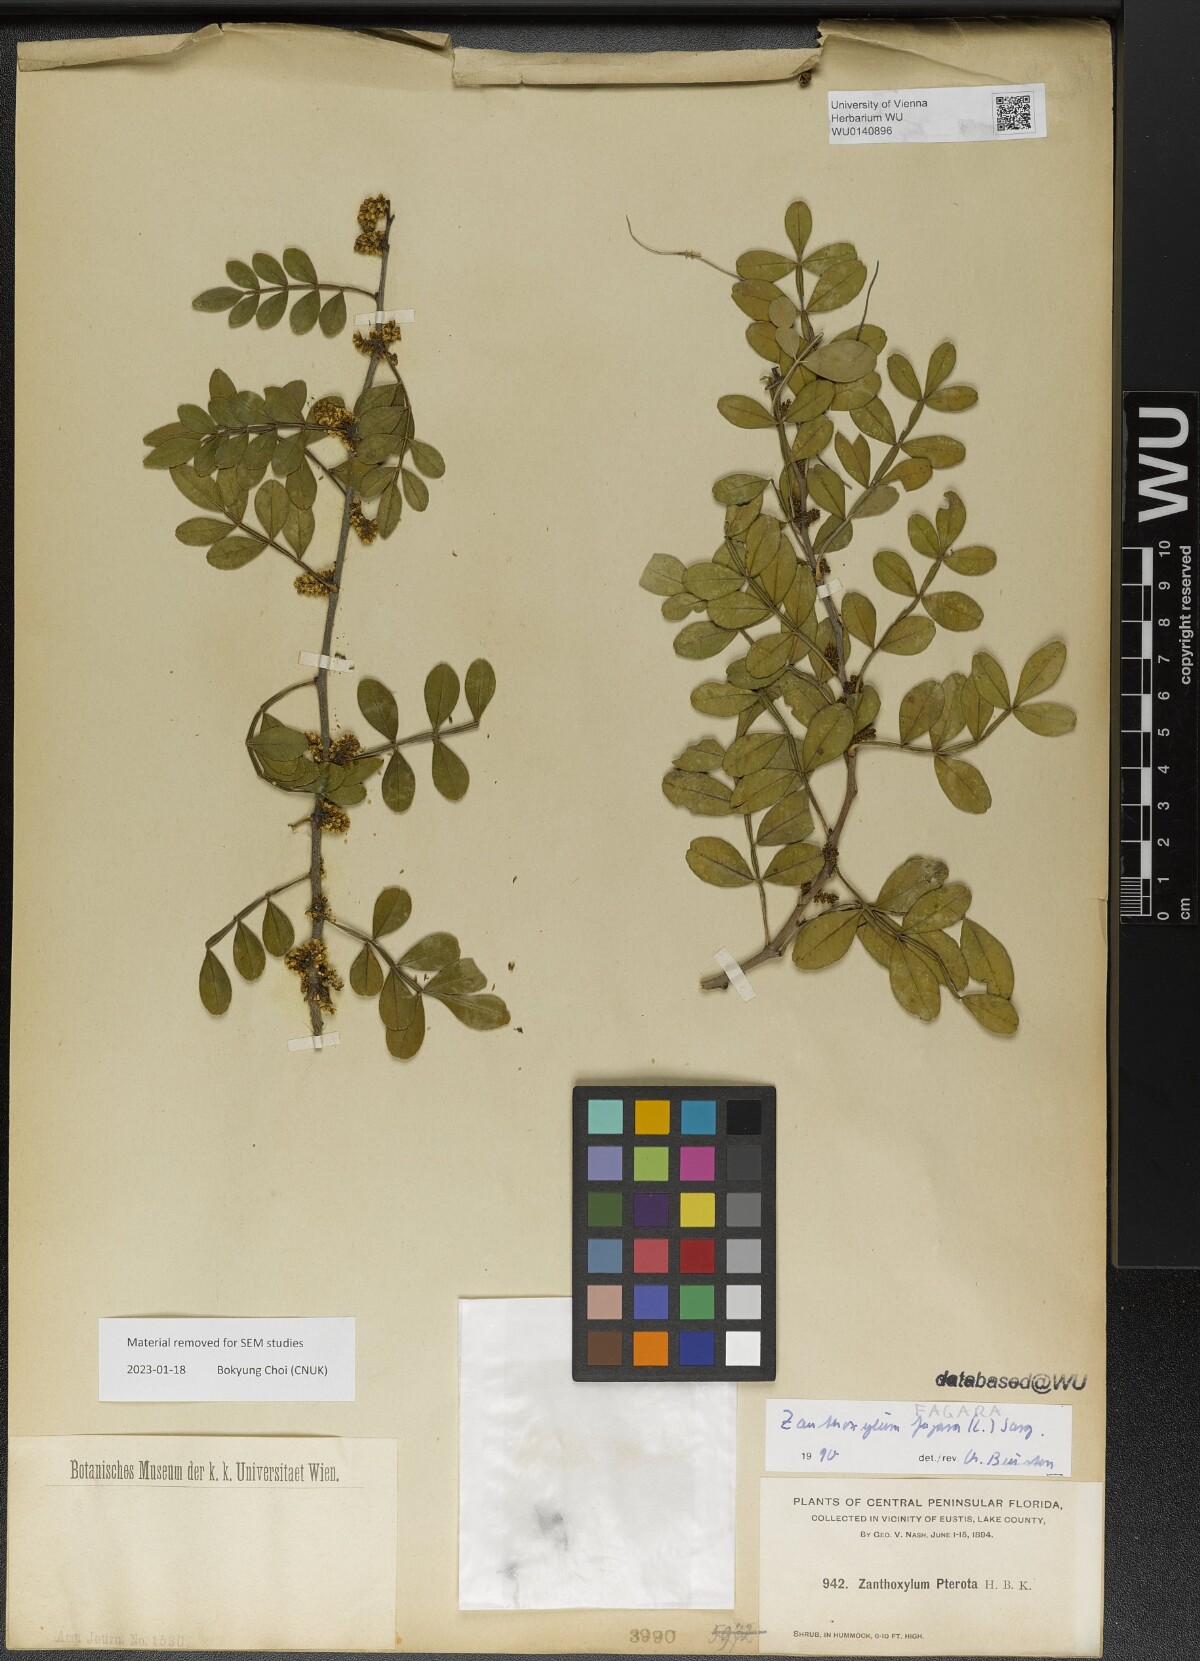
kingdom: Plantae
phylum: Tracheophyta
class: Magnoliopsida
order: Sapindales
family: Rutaceae
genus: Zanthoxylum
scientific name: Zanthoxylum fagara
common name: Lime prickly-ash
